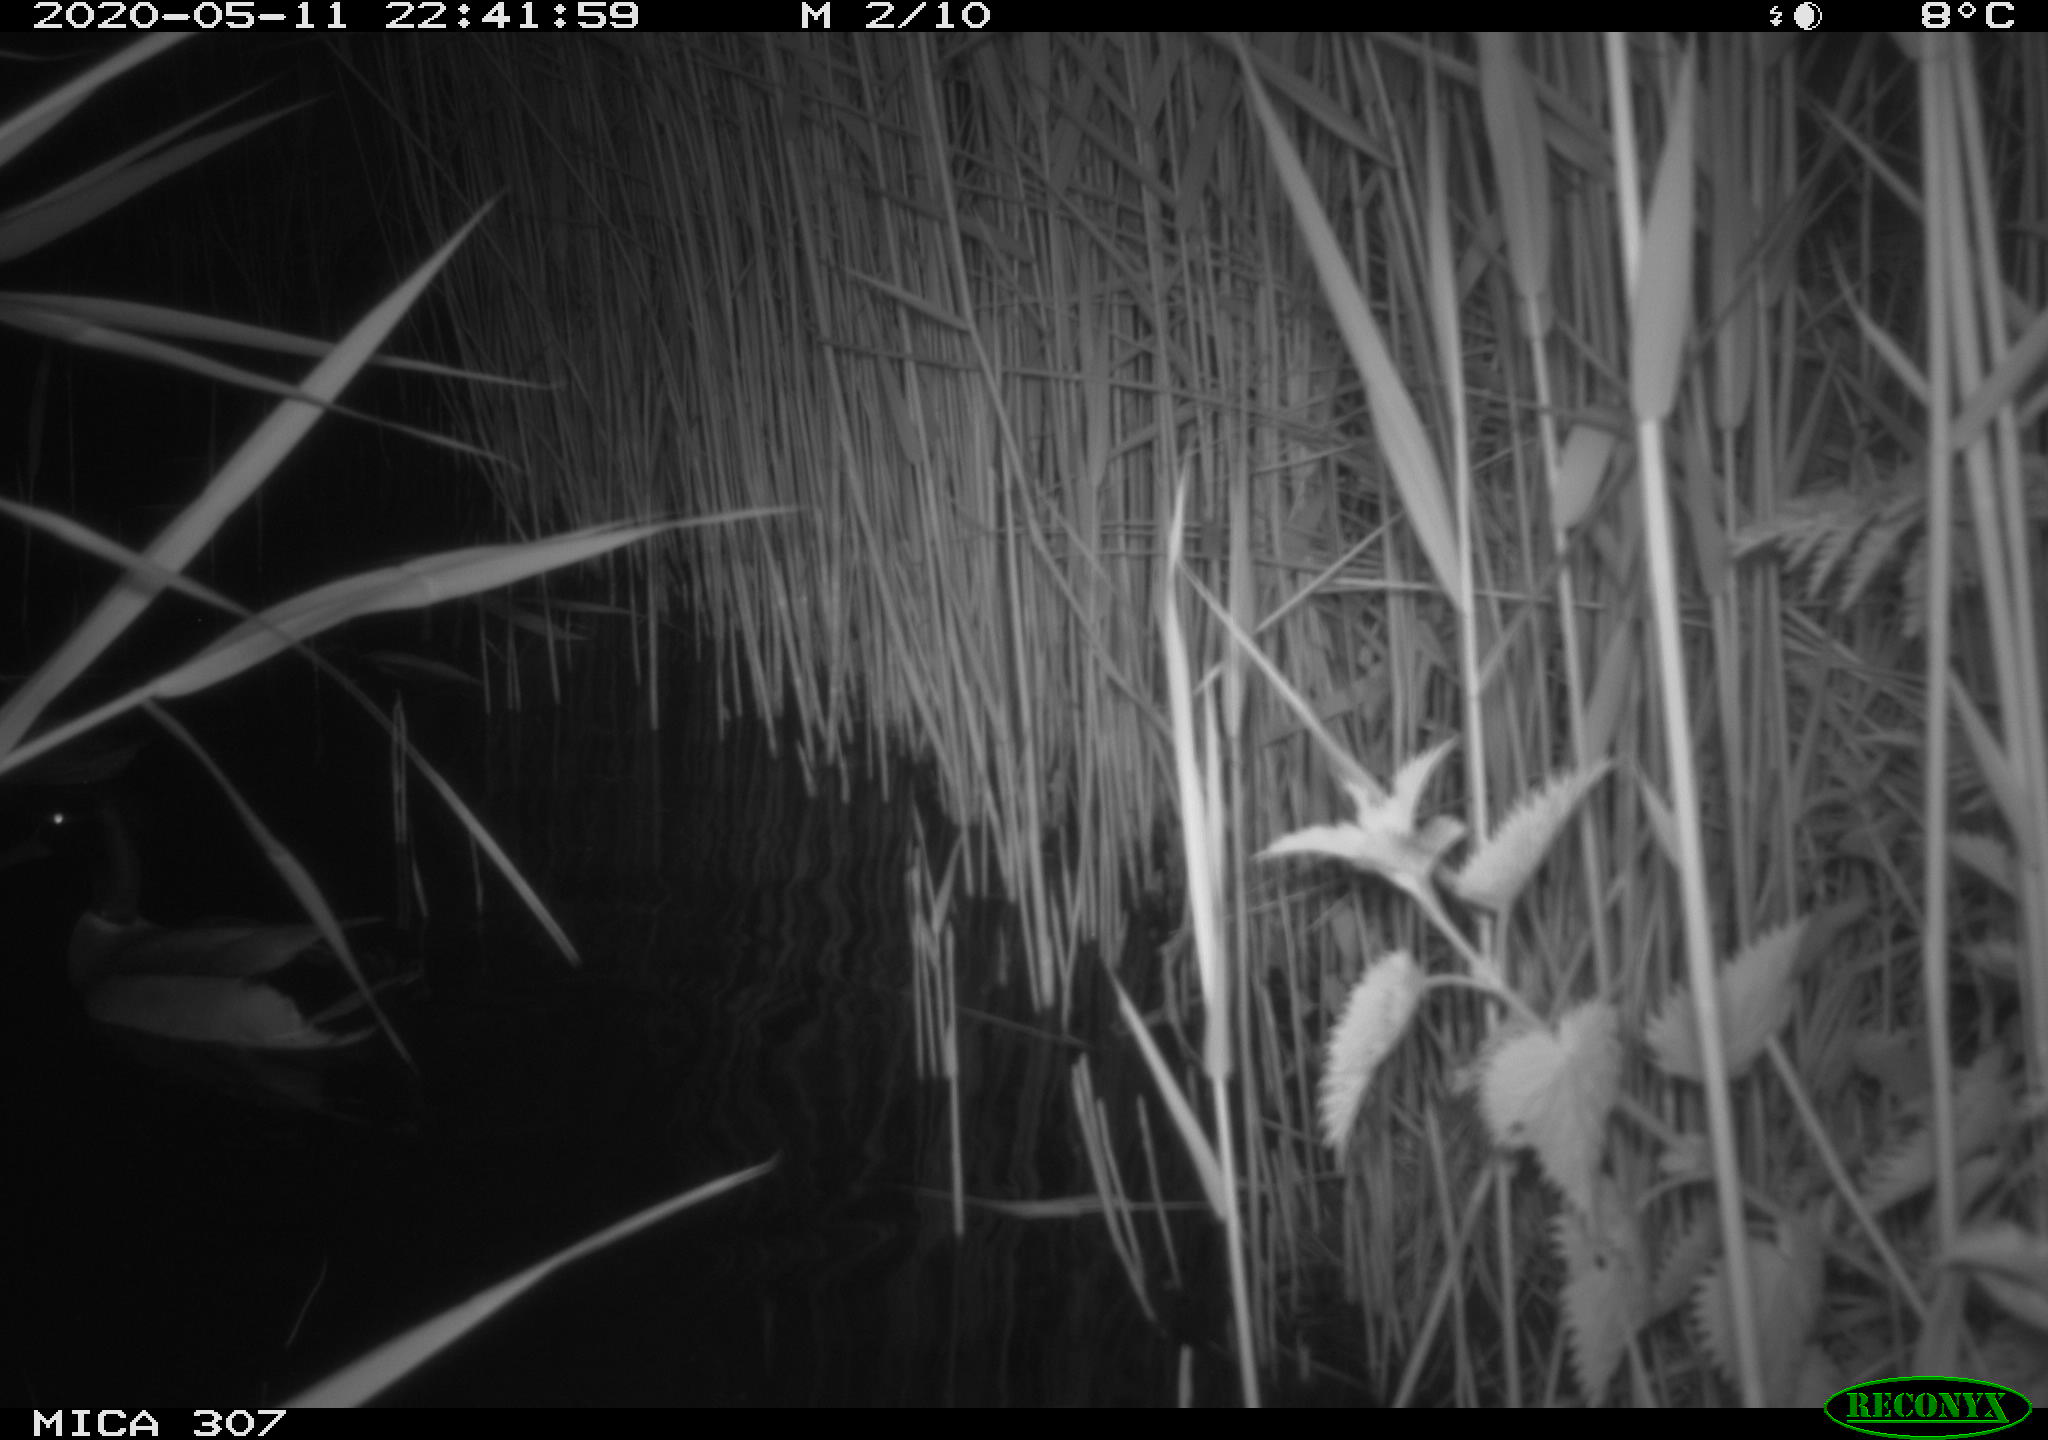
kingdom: Animalia
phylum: Chordata
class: Aves
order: Anseriformes
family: Anatidae
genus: Anas
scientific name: Anas platyrhynchos
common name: Mallard
